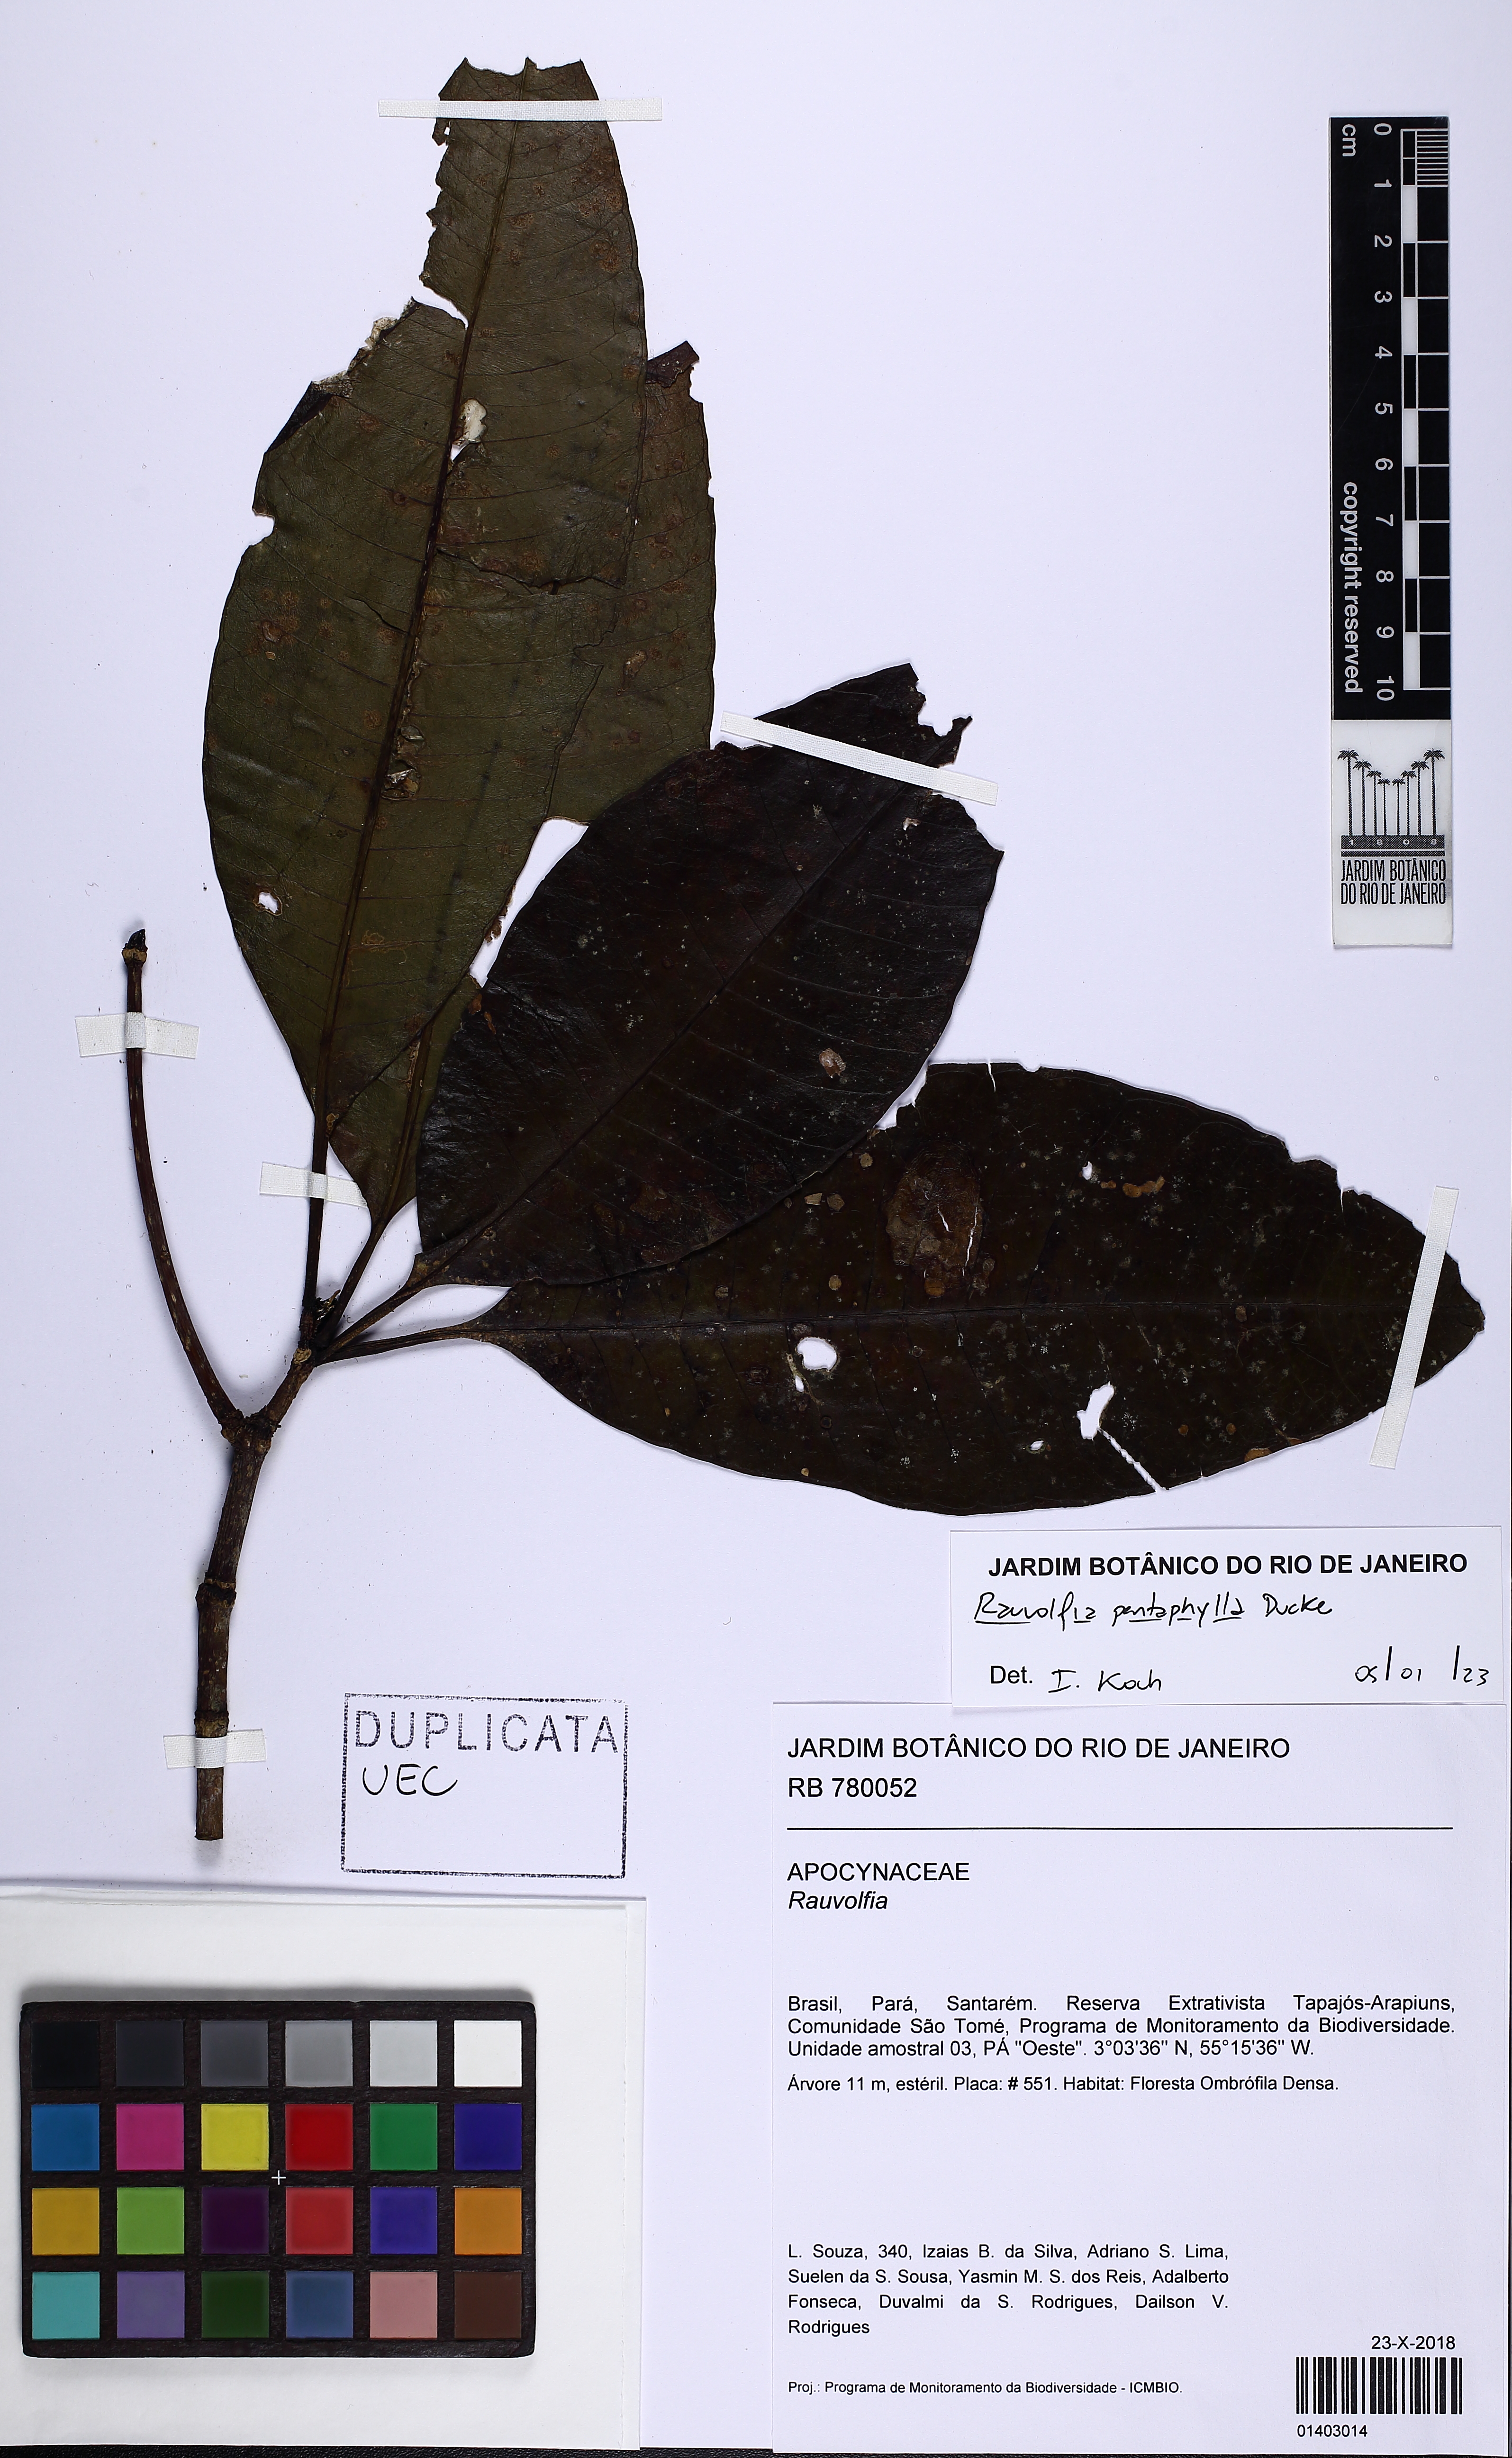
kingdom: Plantae
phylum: Tracheophyta
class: Magnoliopsida
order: Gentianales
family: Apocynaceae
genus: Rauvolfia
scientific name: Rauvolfia pentaphylla
